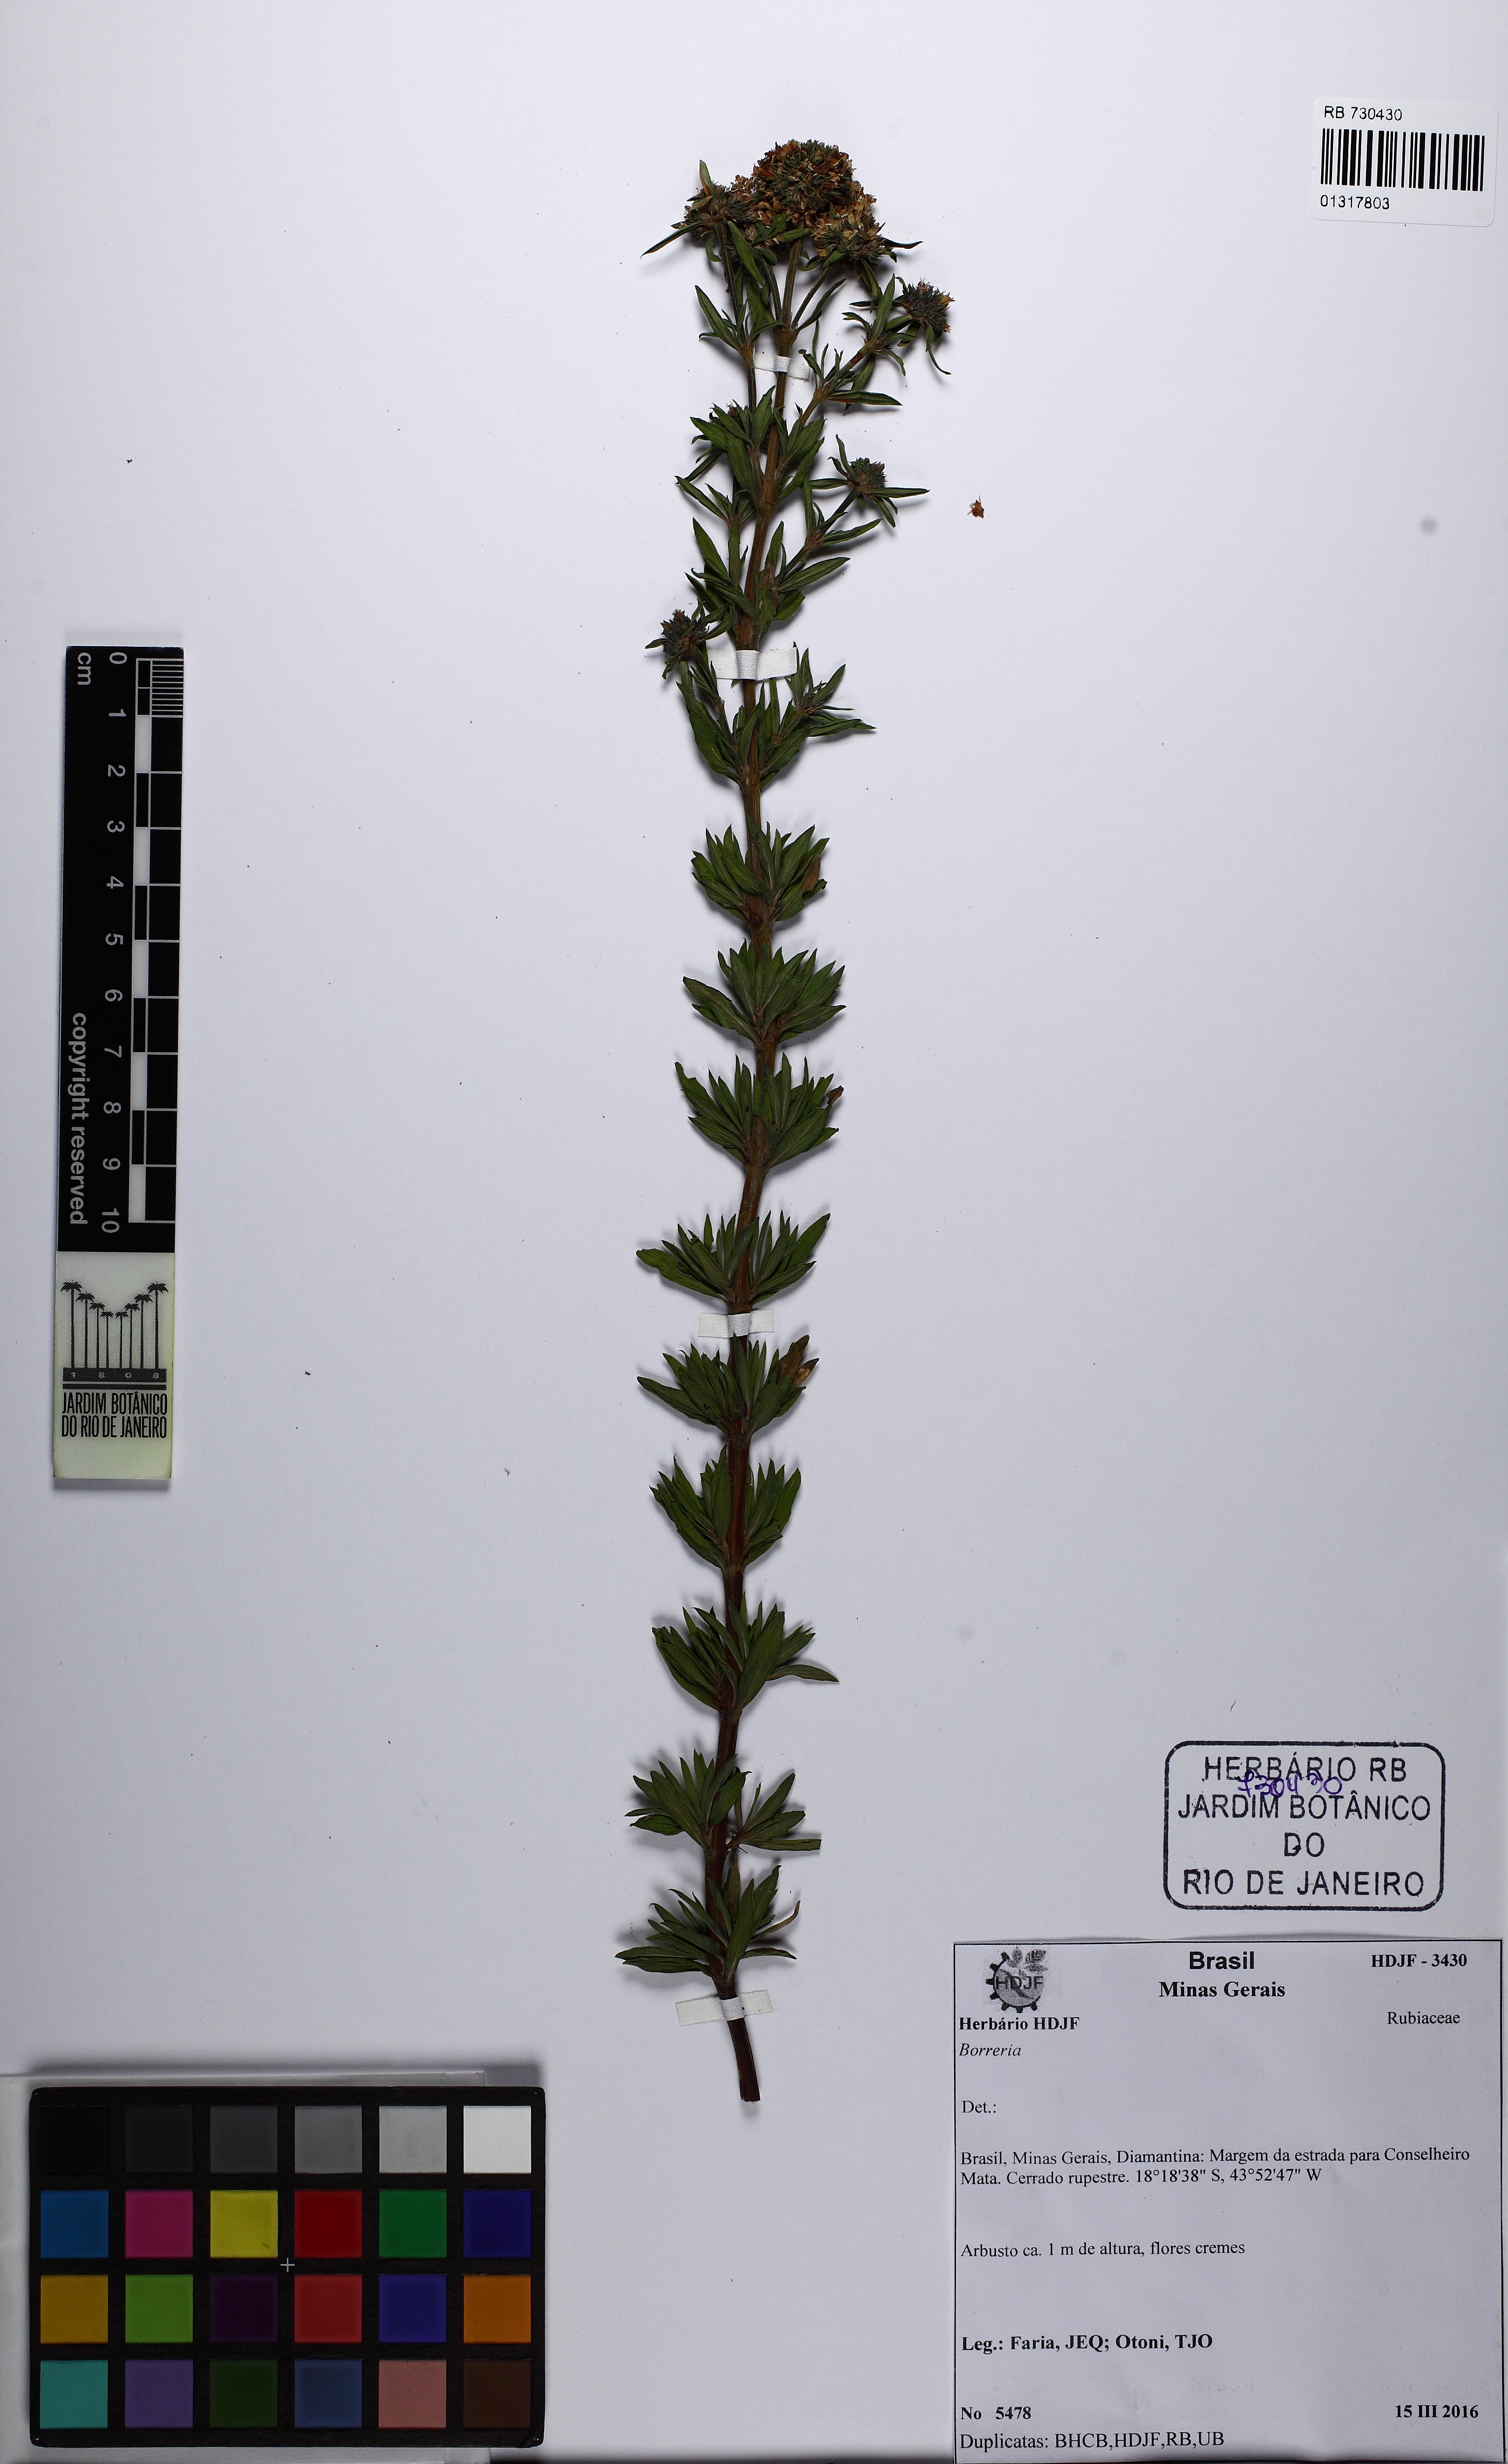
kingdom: Plantae
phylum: Tracheophyta
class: Magnoliopsida
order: Gentianales
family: Rubiaceae
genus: Spermacoce
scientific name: Spermacoce
